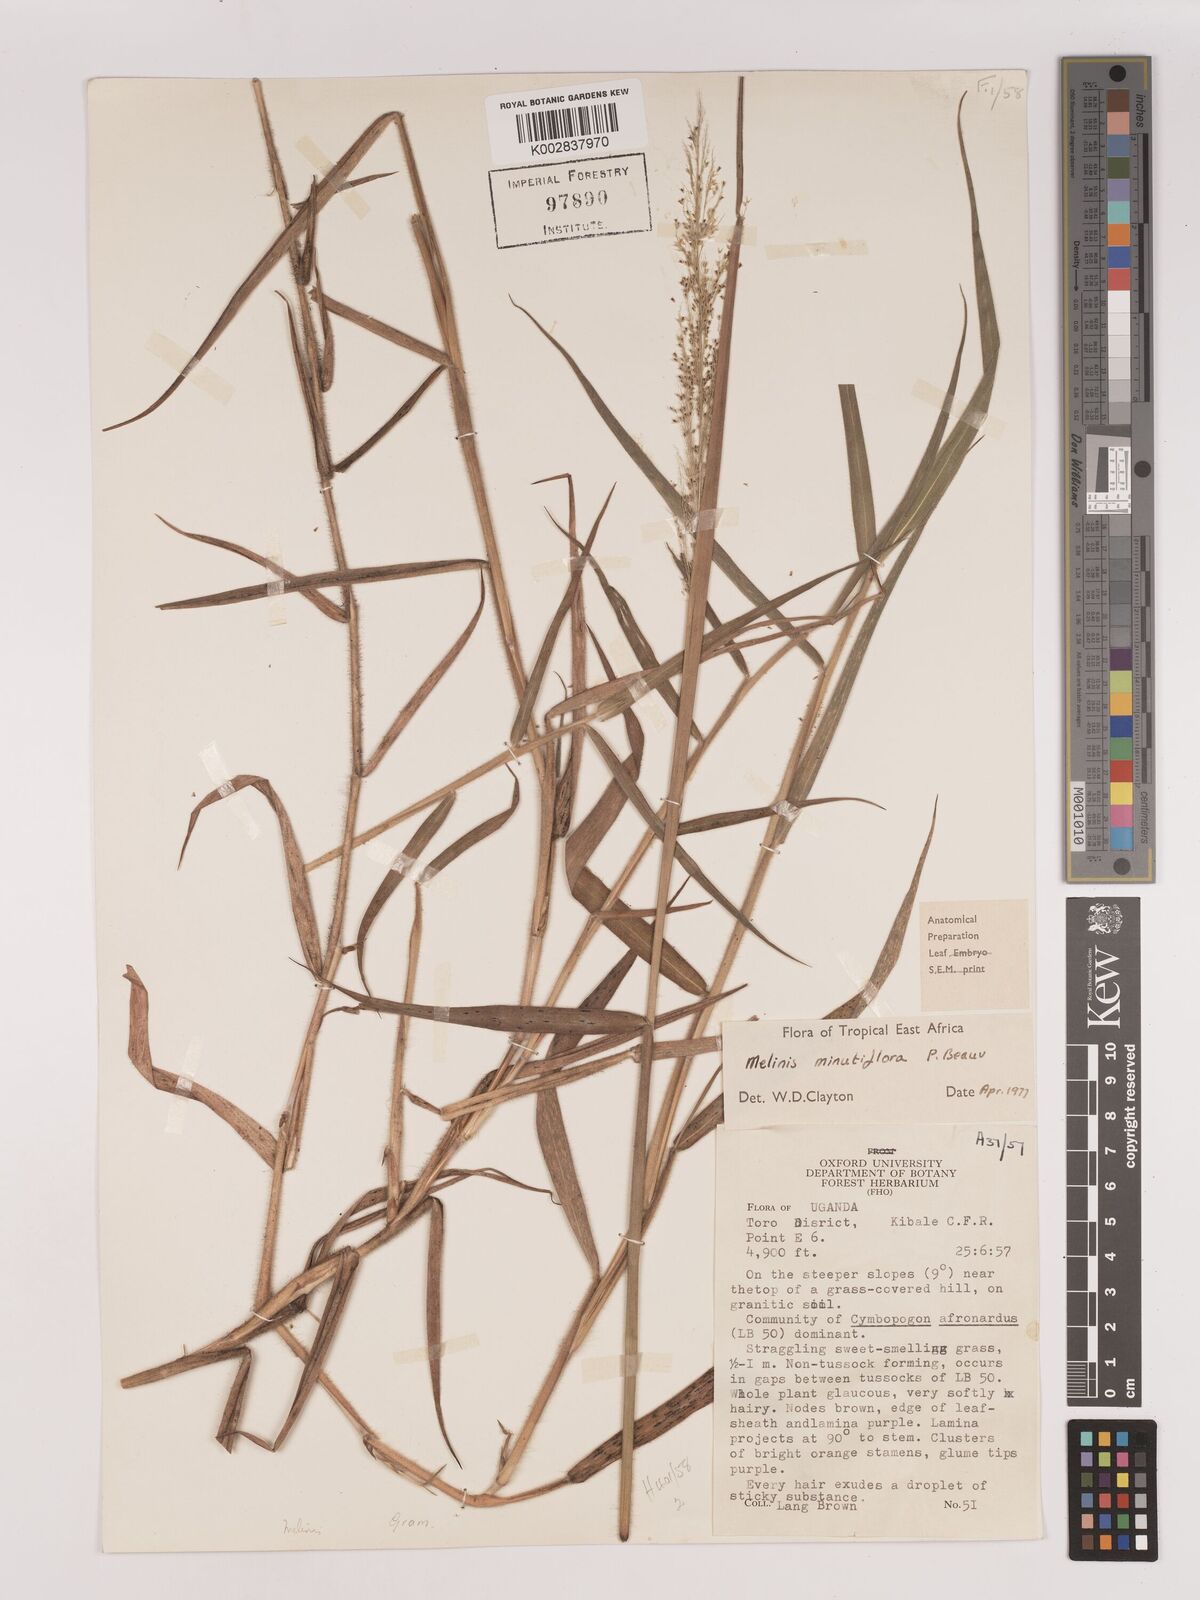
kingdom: Plantae
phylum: Tracheophyta
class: Liliopsida
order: Poales
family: Poaceae
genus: Melinis
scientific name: Melinis minutiflora
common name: Molassesgrass
